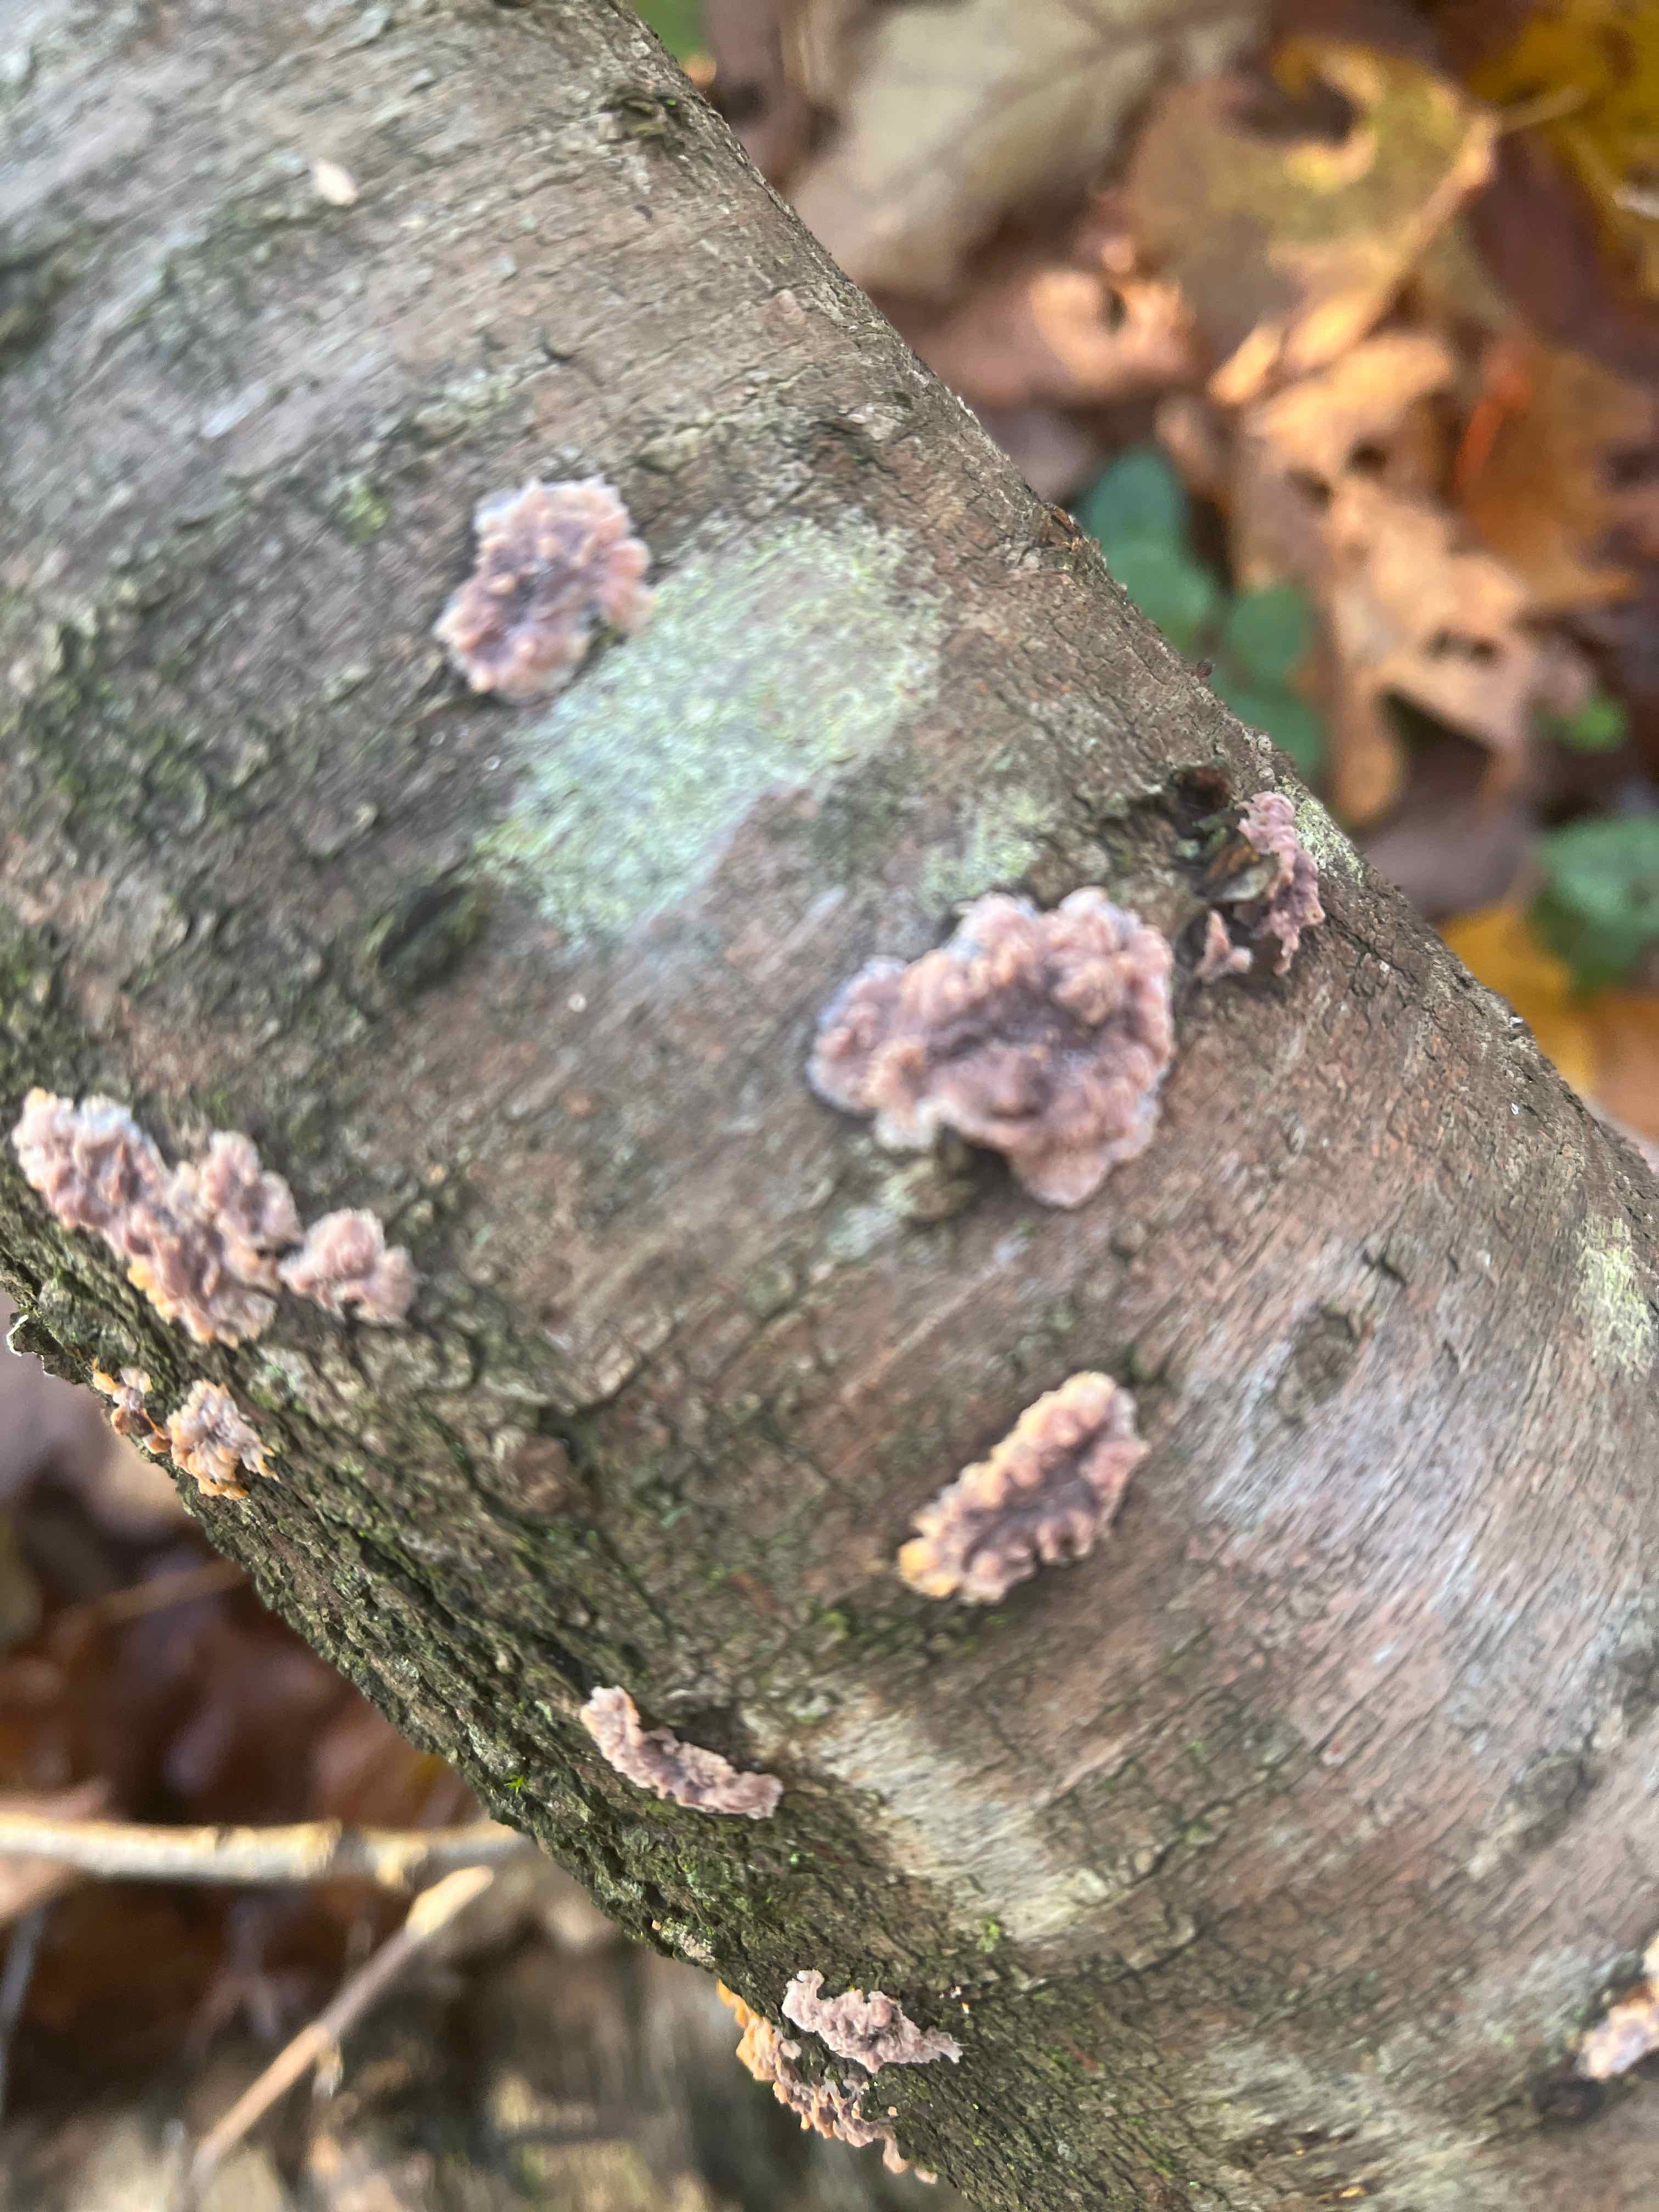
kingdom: Fungi
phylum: Basidiomycota
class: Agaricomycetes
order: Polyporales
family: Meruliaceae
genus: Phlebia
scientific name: Phlebia radiata
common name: stråle-åresvamp
